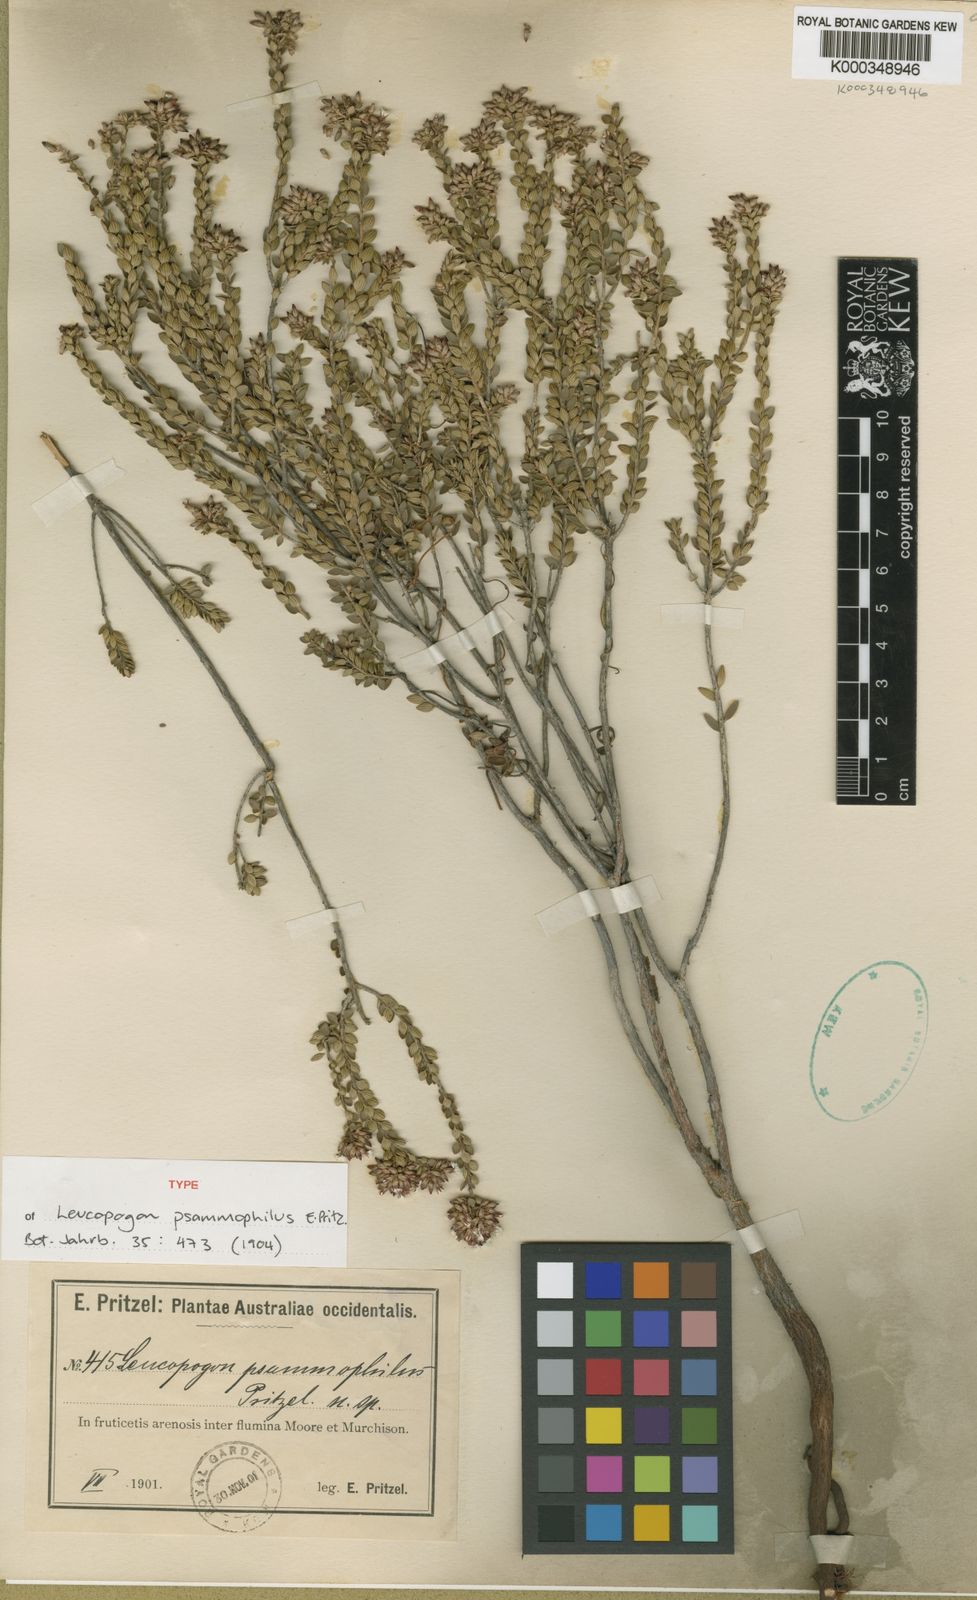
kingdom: Plantae
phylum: Tracheophyta
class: Magnoliopsida
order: Ericales
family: Ericaceae
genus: Leucopogon
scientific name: Leucopogon psammophilus
